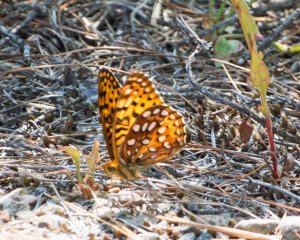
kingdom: Animalia
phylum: Arthropoda
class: Insecta
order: Lepidoptera
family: Nymphalidae
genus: Speyeria
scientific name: Speyeria aphrodite
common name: Aphrodite Fritillary
